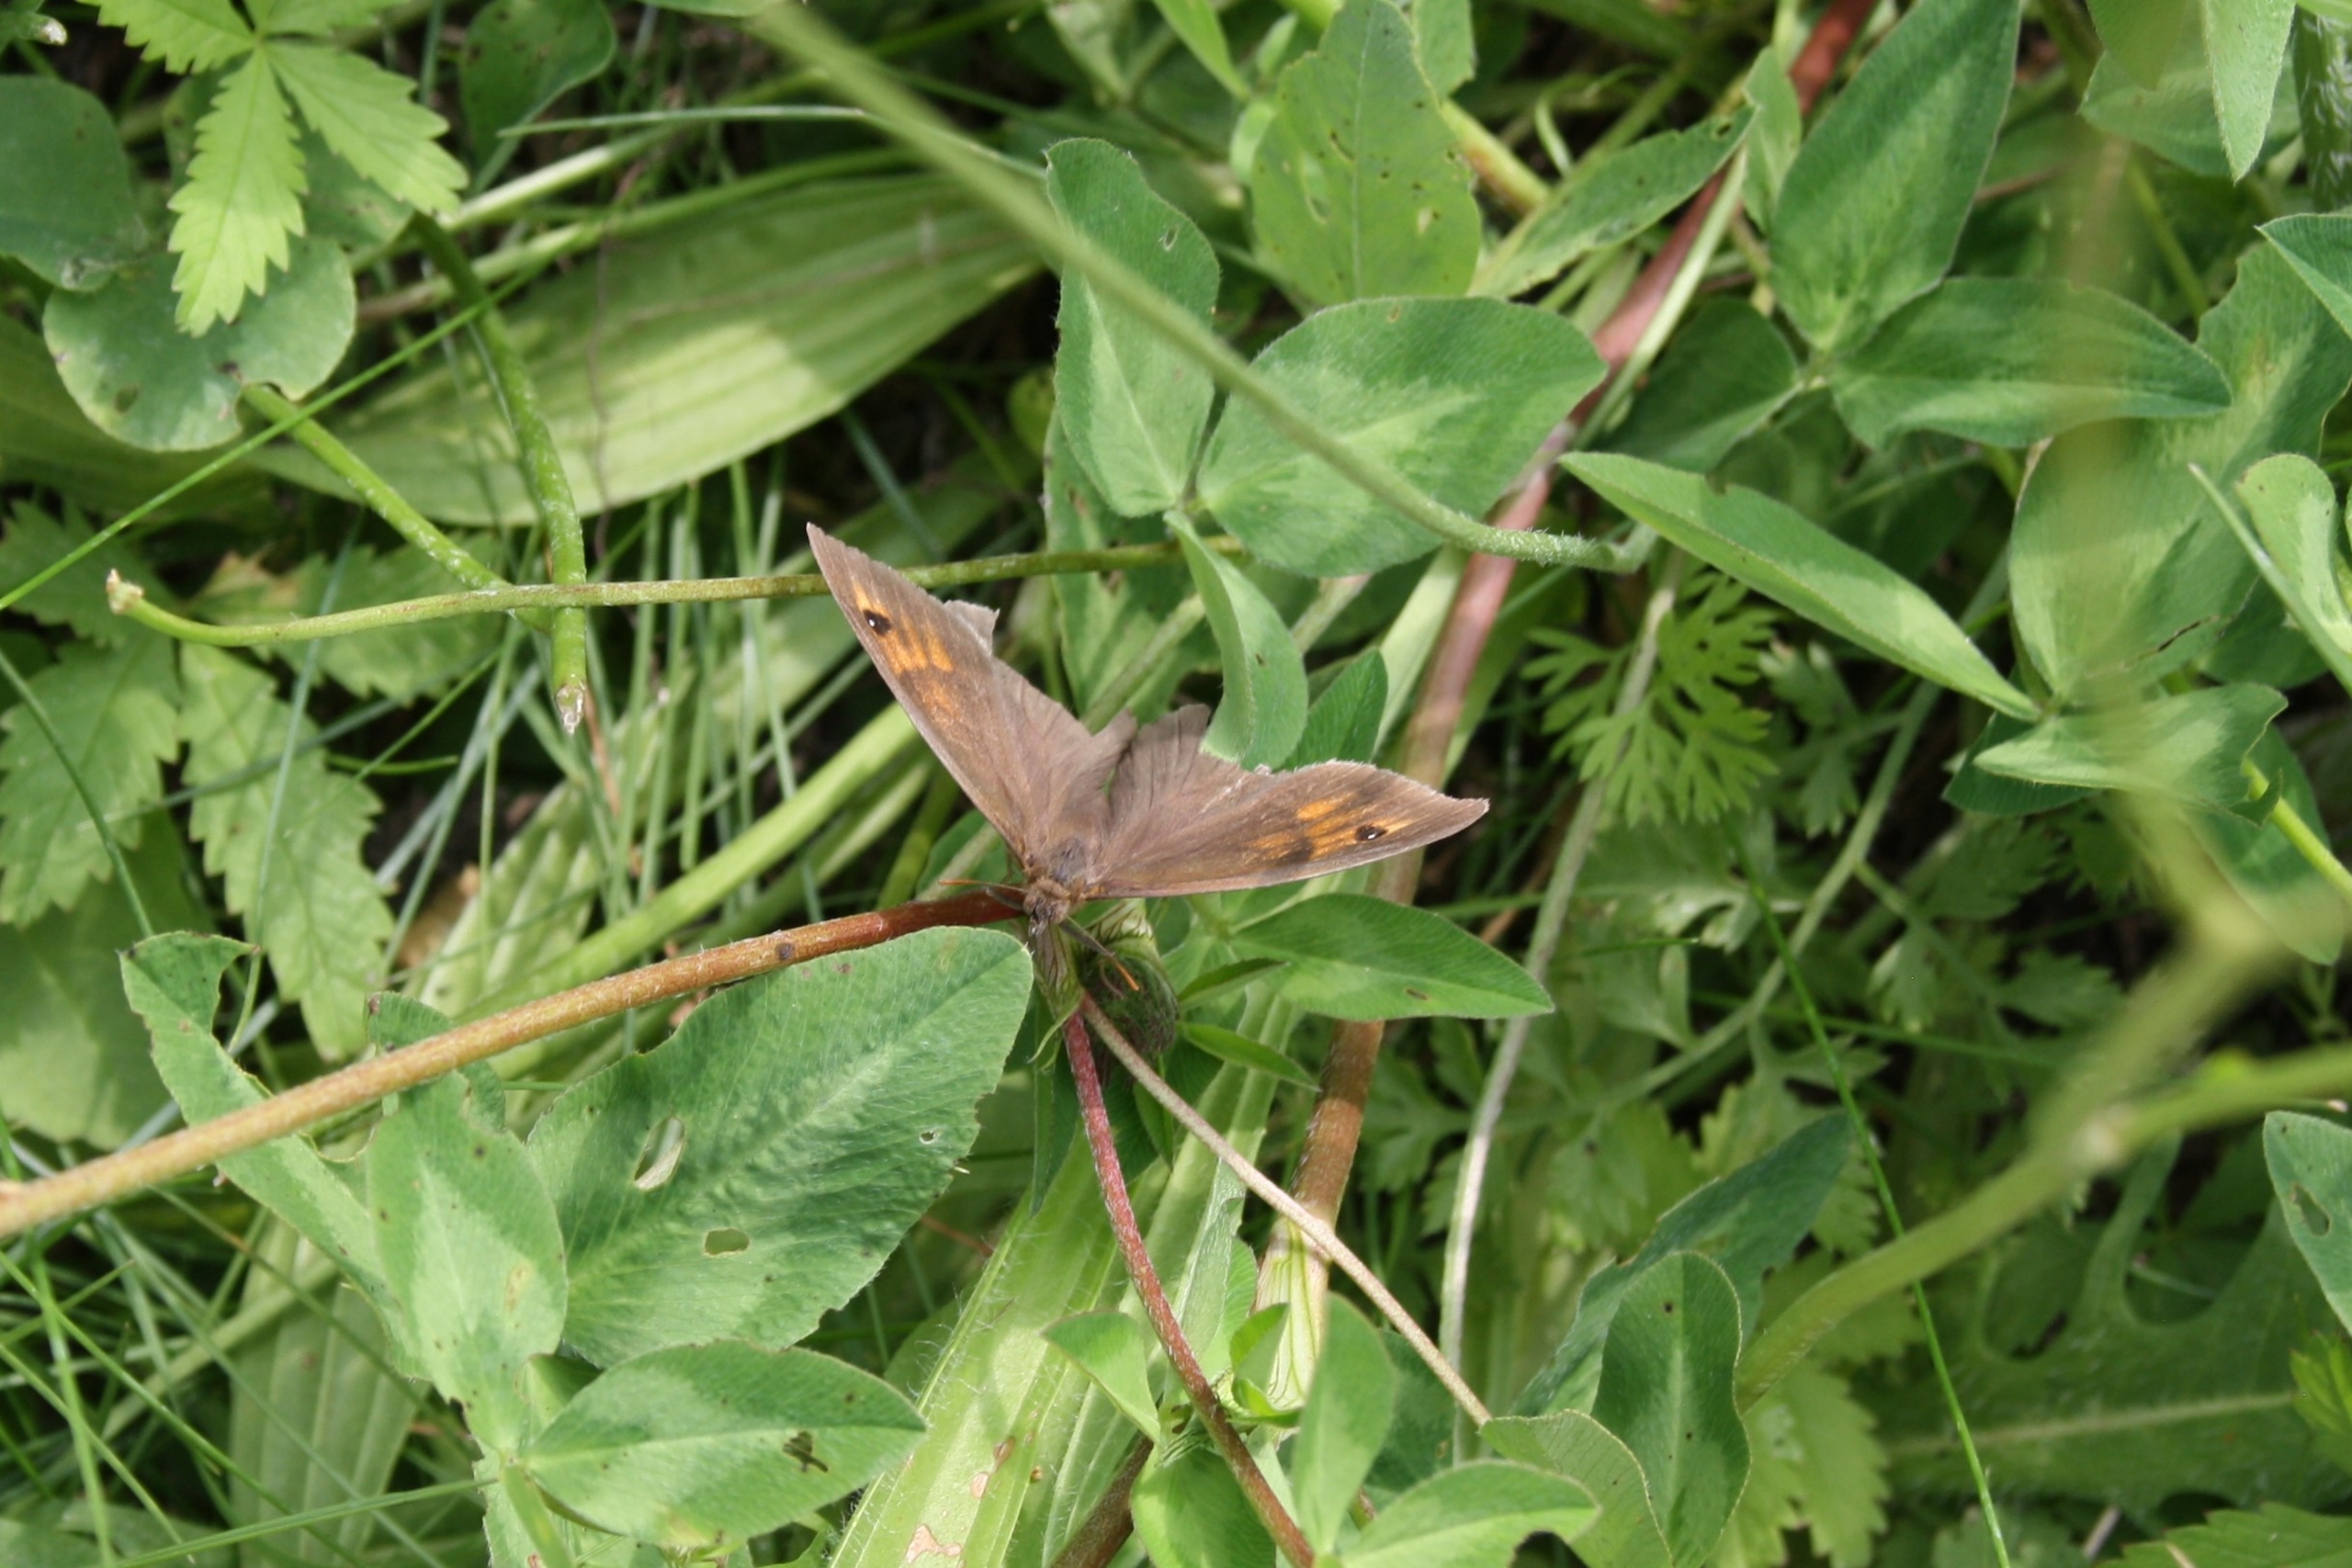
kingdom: Animalia
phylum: Arthropoda
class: Insecta
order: Lepidoptera
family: Nymphalidae
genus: Maniola
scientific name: Maniola jurtina
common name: Græsrandøje
